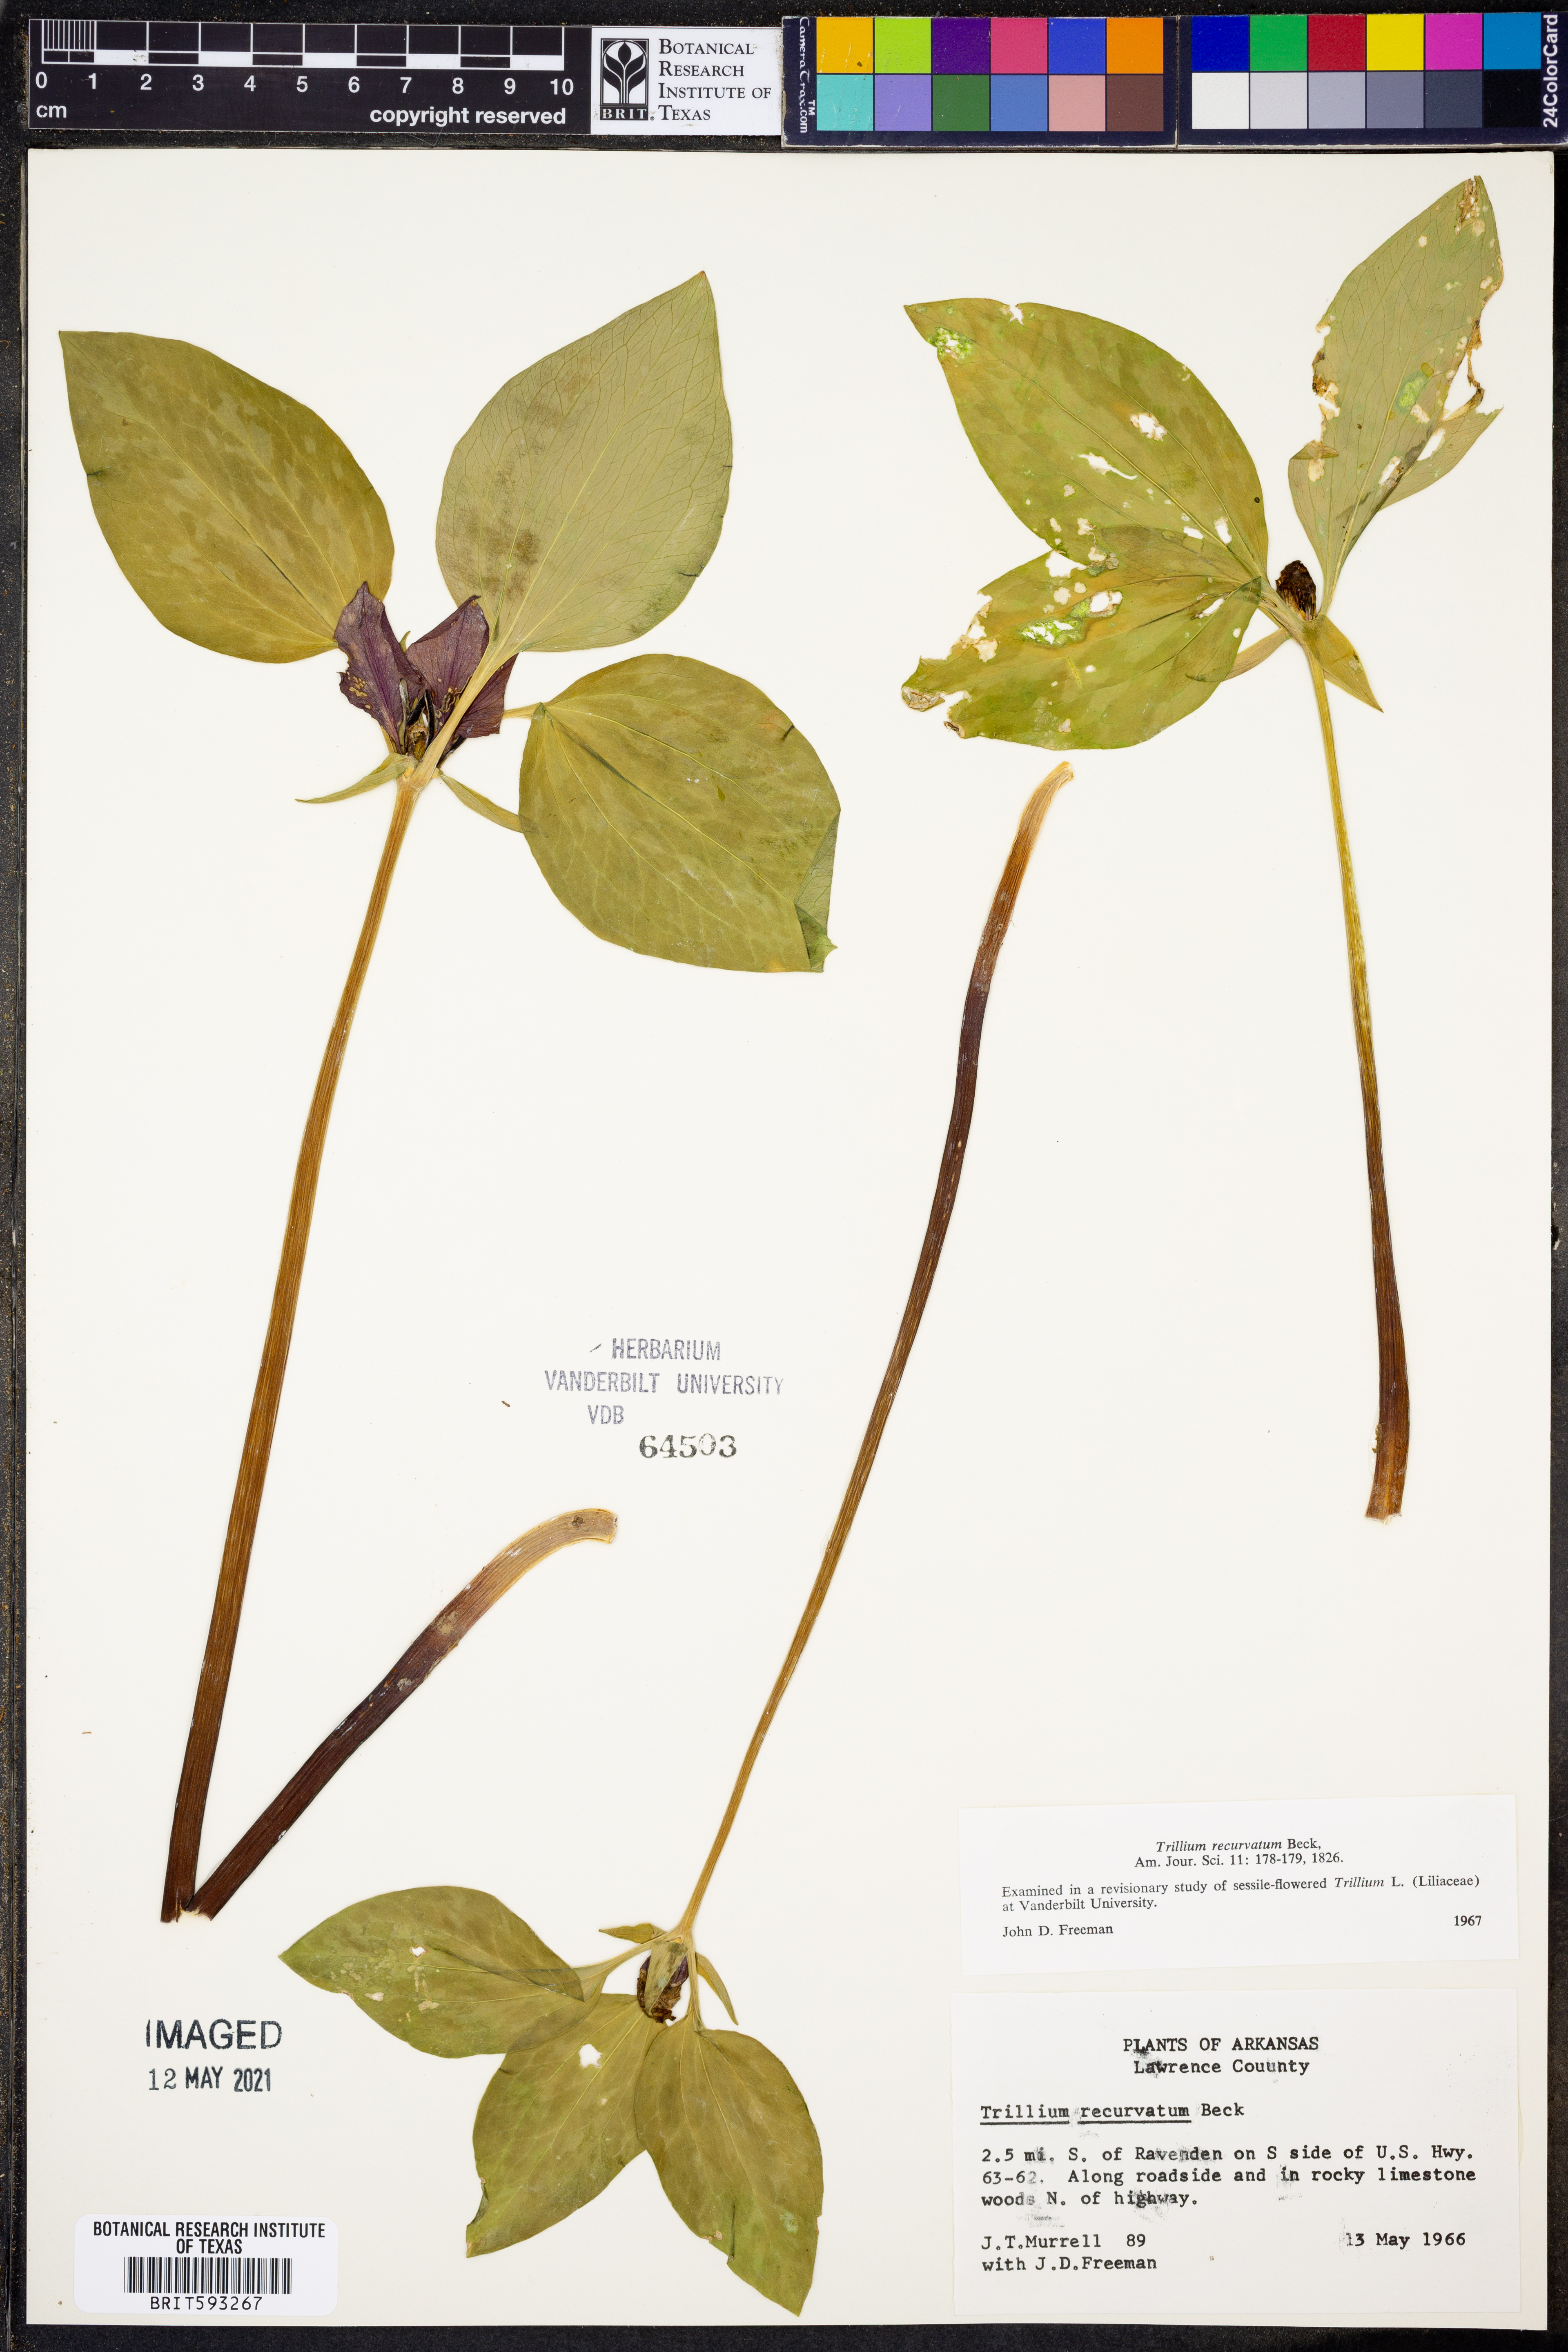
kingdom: Plantae
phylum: Tracheophyta
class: Liliopsida
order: Liliales
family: Melanthiaceae
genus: Trillium
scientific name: Trillium recurvatum
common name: Bloody butcher
